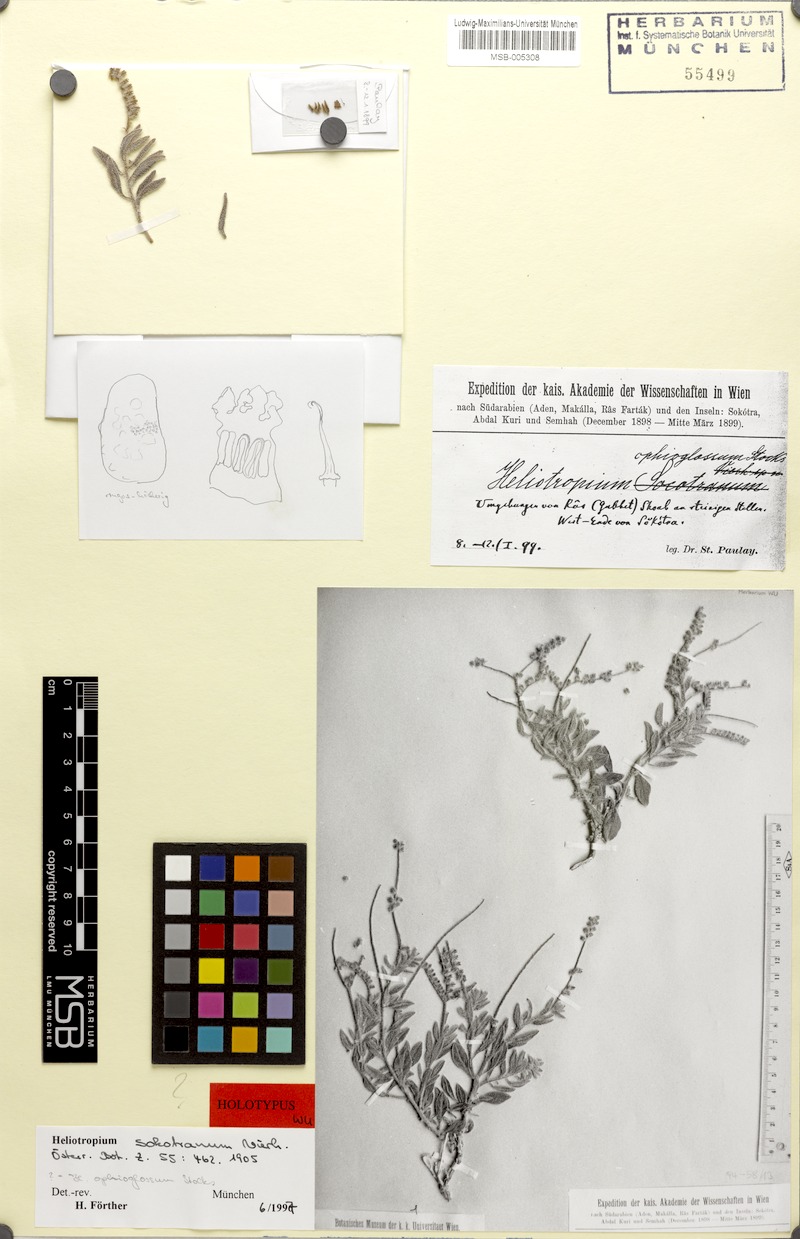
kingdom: Plantae
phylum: Tracheophyta
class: Magnoliopsida
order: Boraginales
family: Heliotropiaceae
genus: Heliotropium
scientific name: Heliotropium sokotranum
